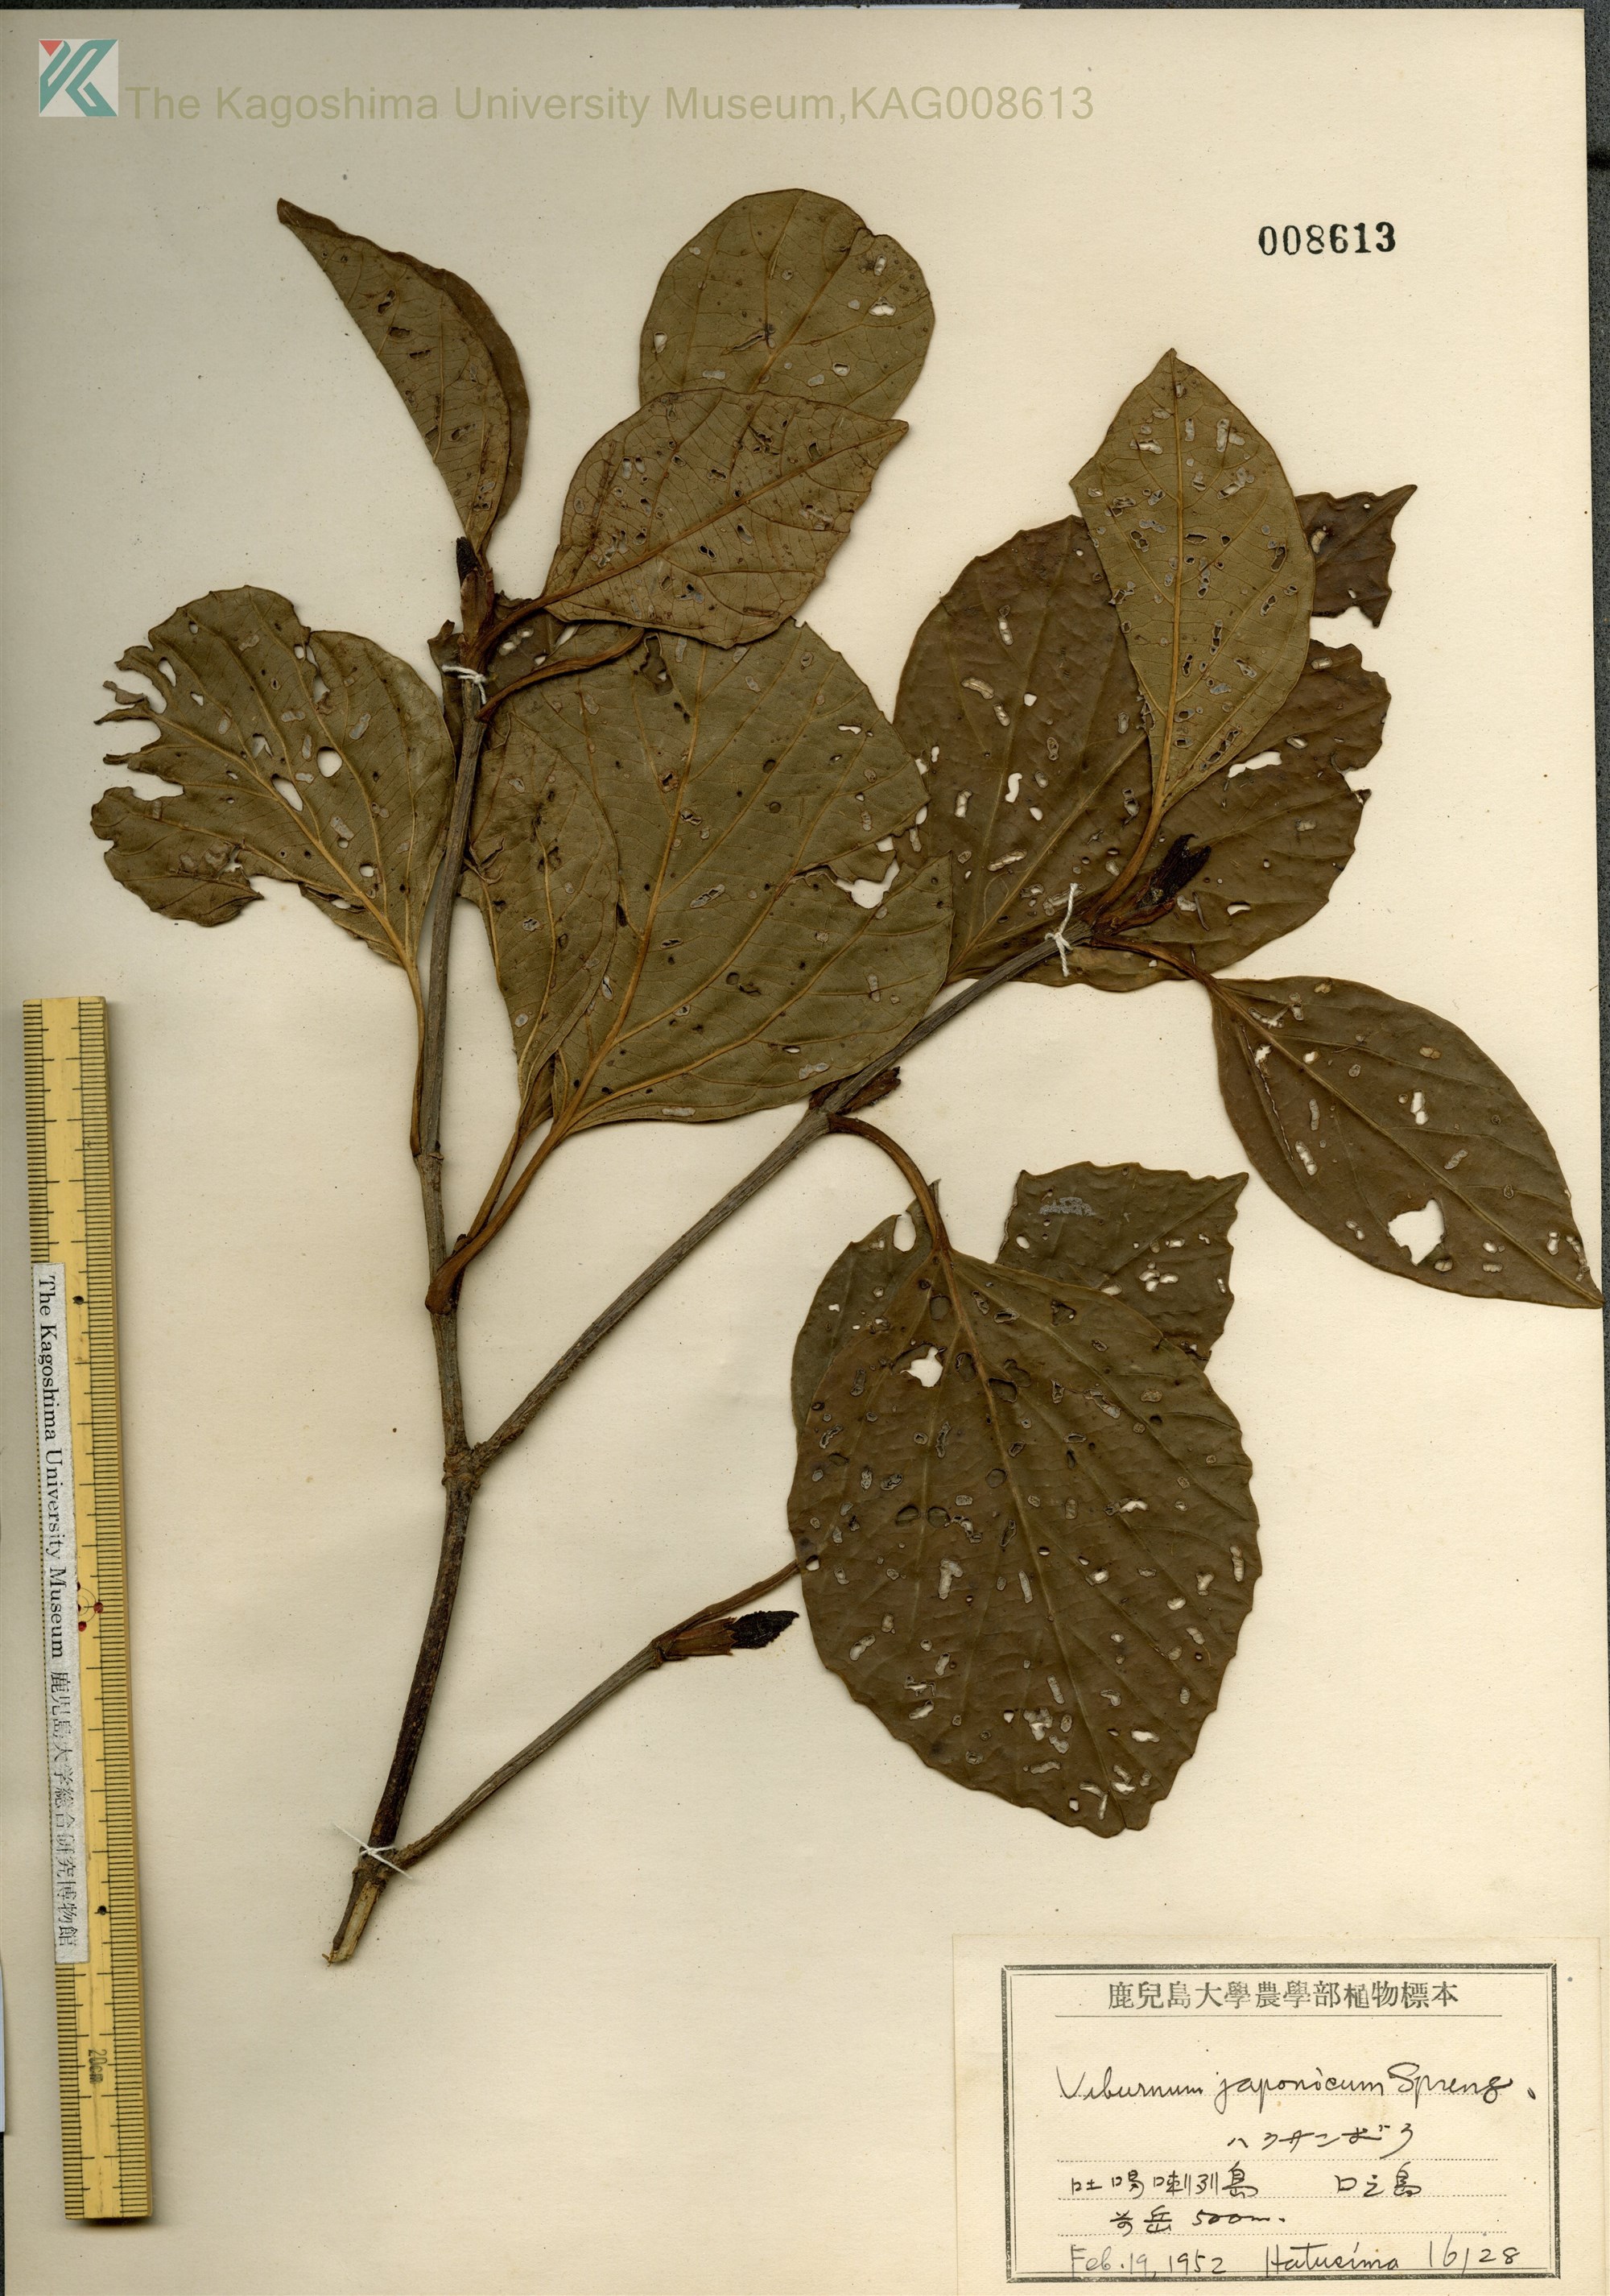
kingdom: Plantae
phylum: Tracheophyta
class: Magnoliopsida
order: Dipsacales
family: Viburnaceae
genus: Viburnum
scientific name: Viburnum japonicum
